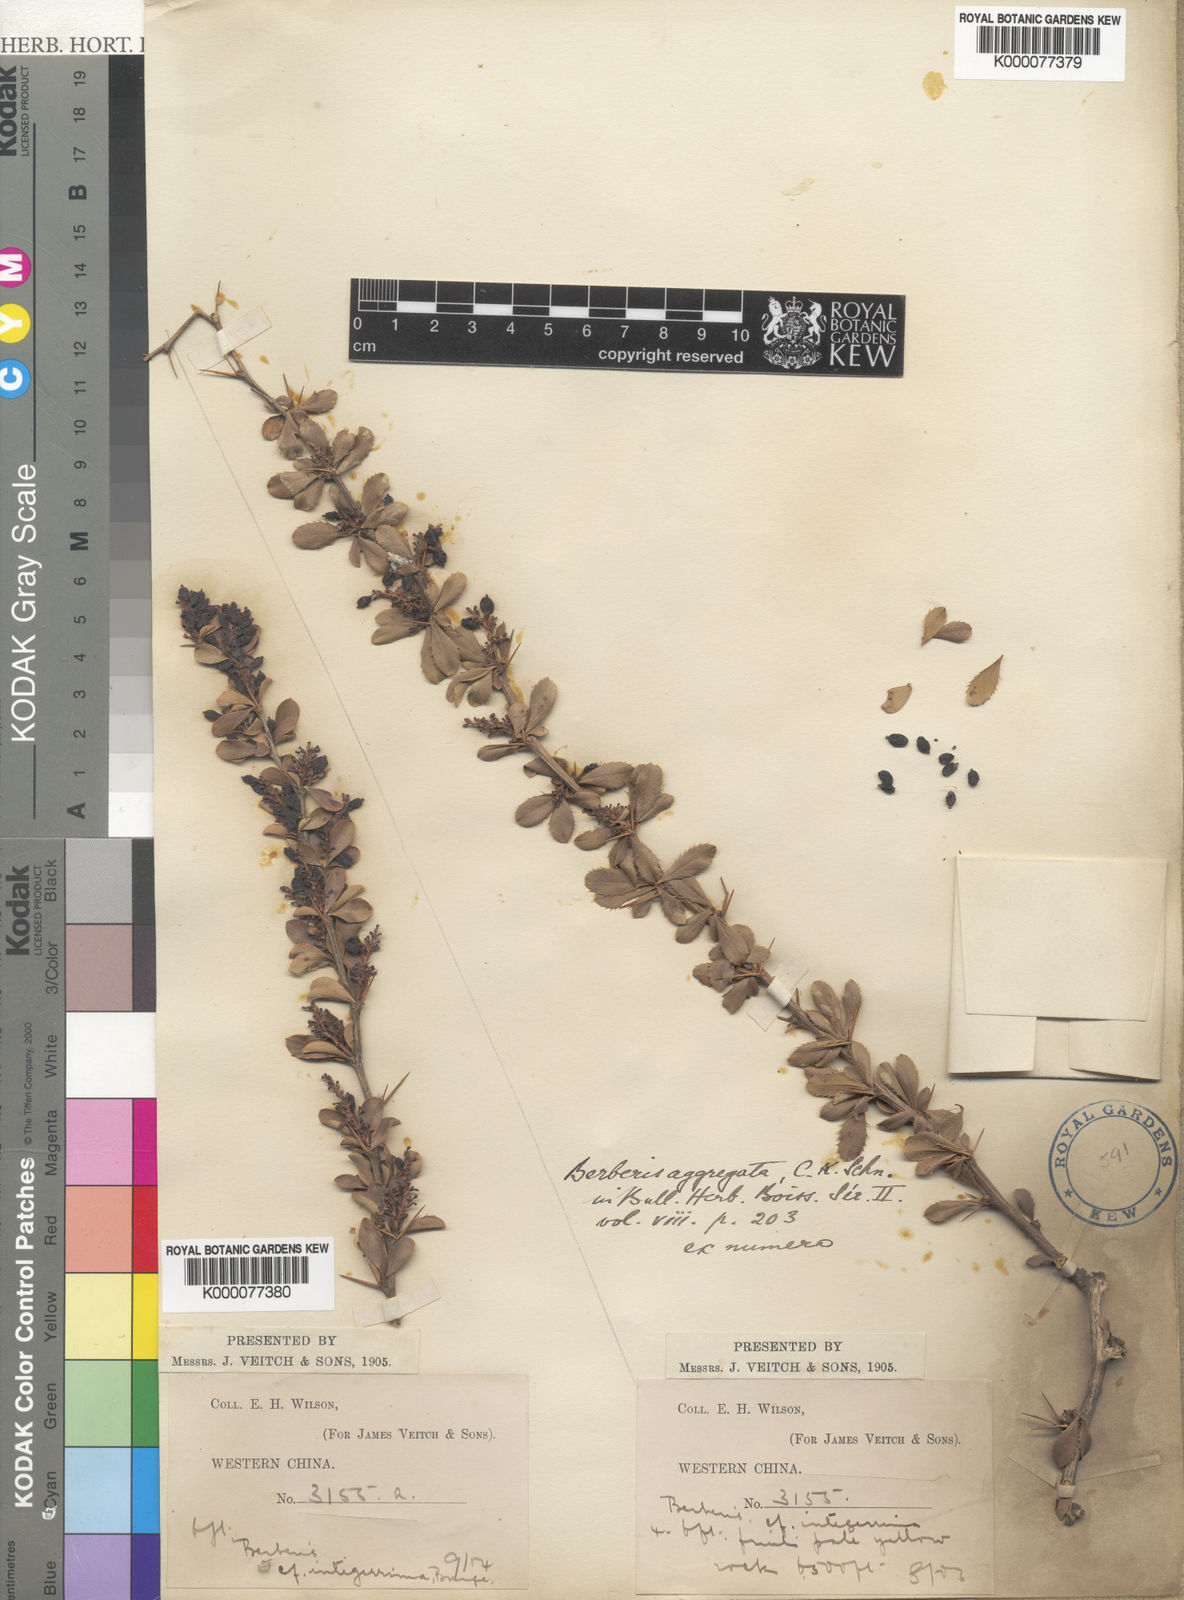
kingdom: Plantae
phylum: Tracheophyta
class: Magnoliopsida
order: Ranunculales
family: Berberidaceae
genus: Berberis
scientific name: Berberis aggregata
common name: Clustered barberry
